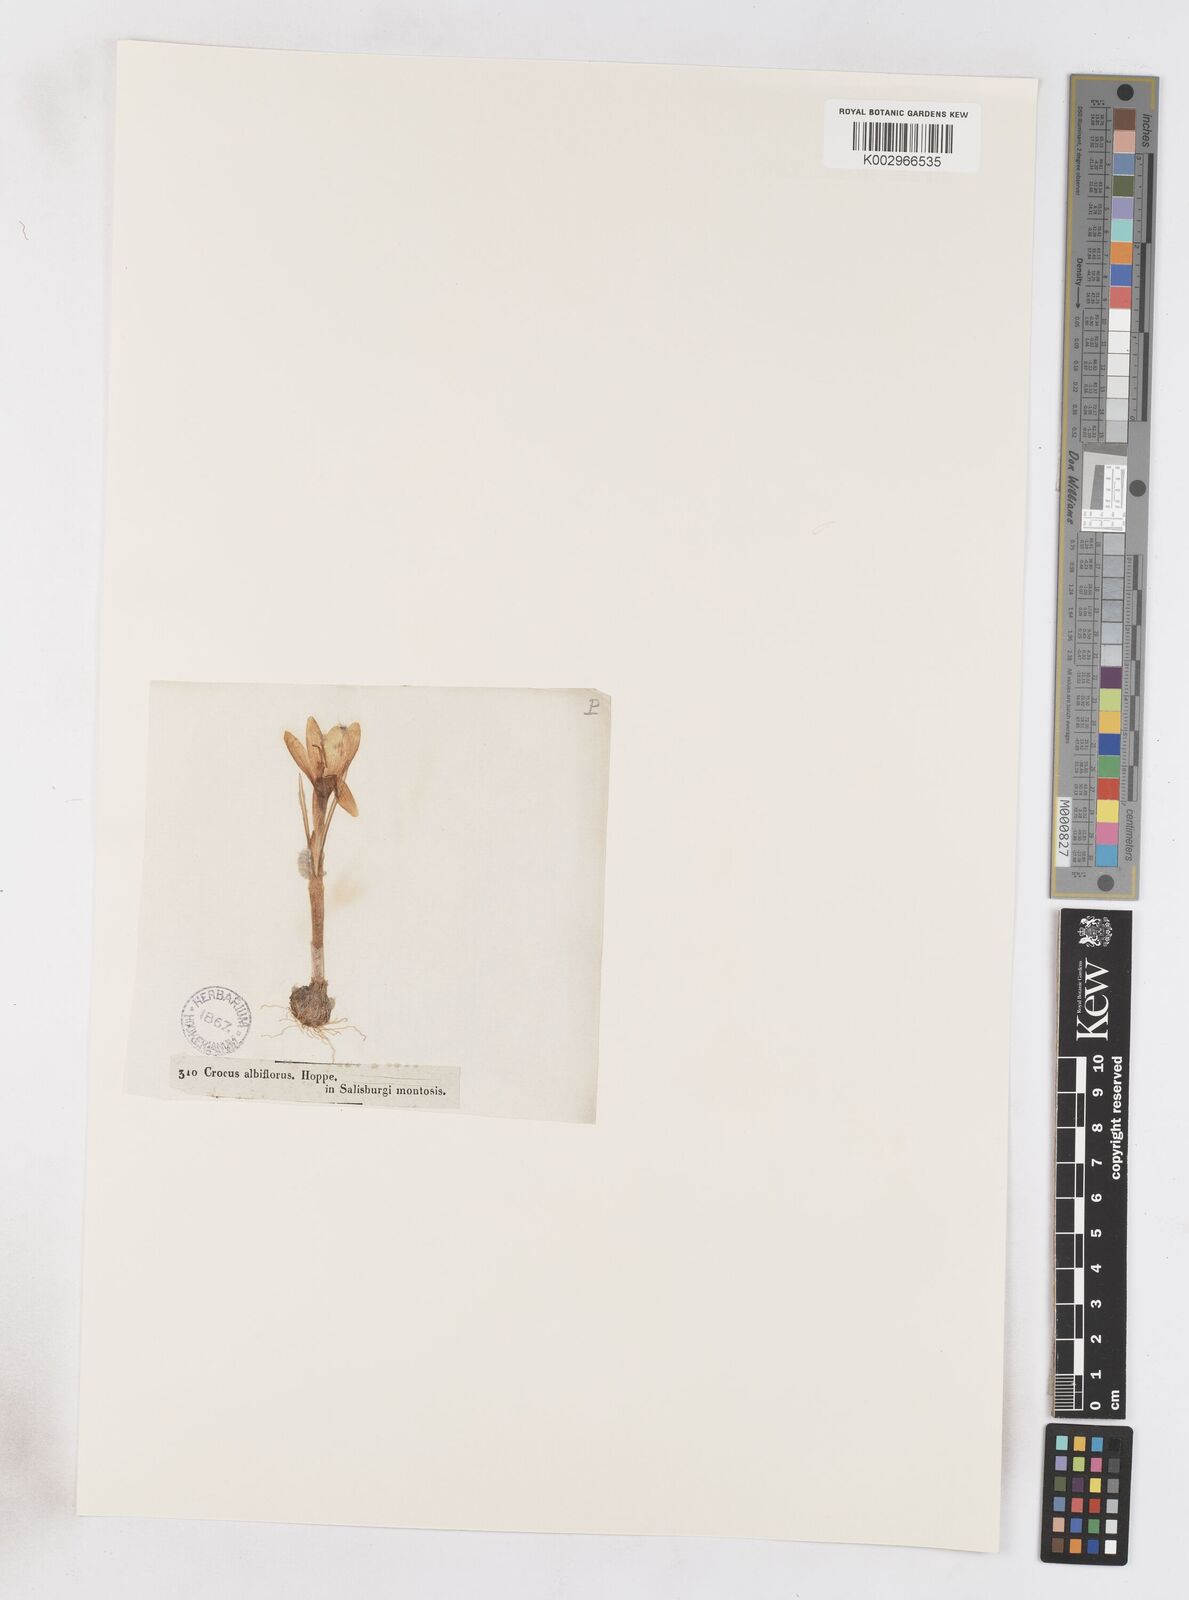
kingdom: Plantae
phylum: Tracheophyta
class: Liliopsida
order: Asparagales
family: Iridaceae
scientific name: Iridaceae
